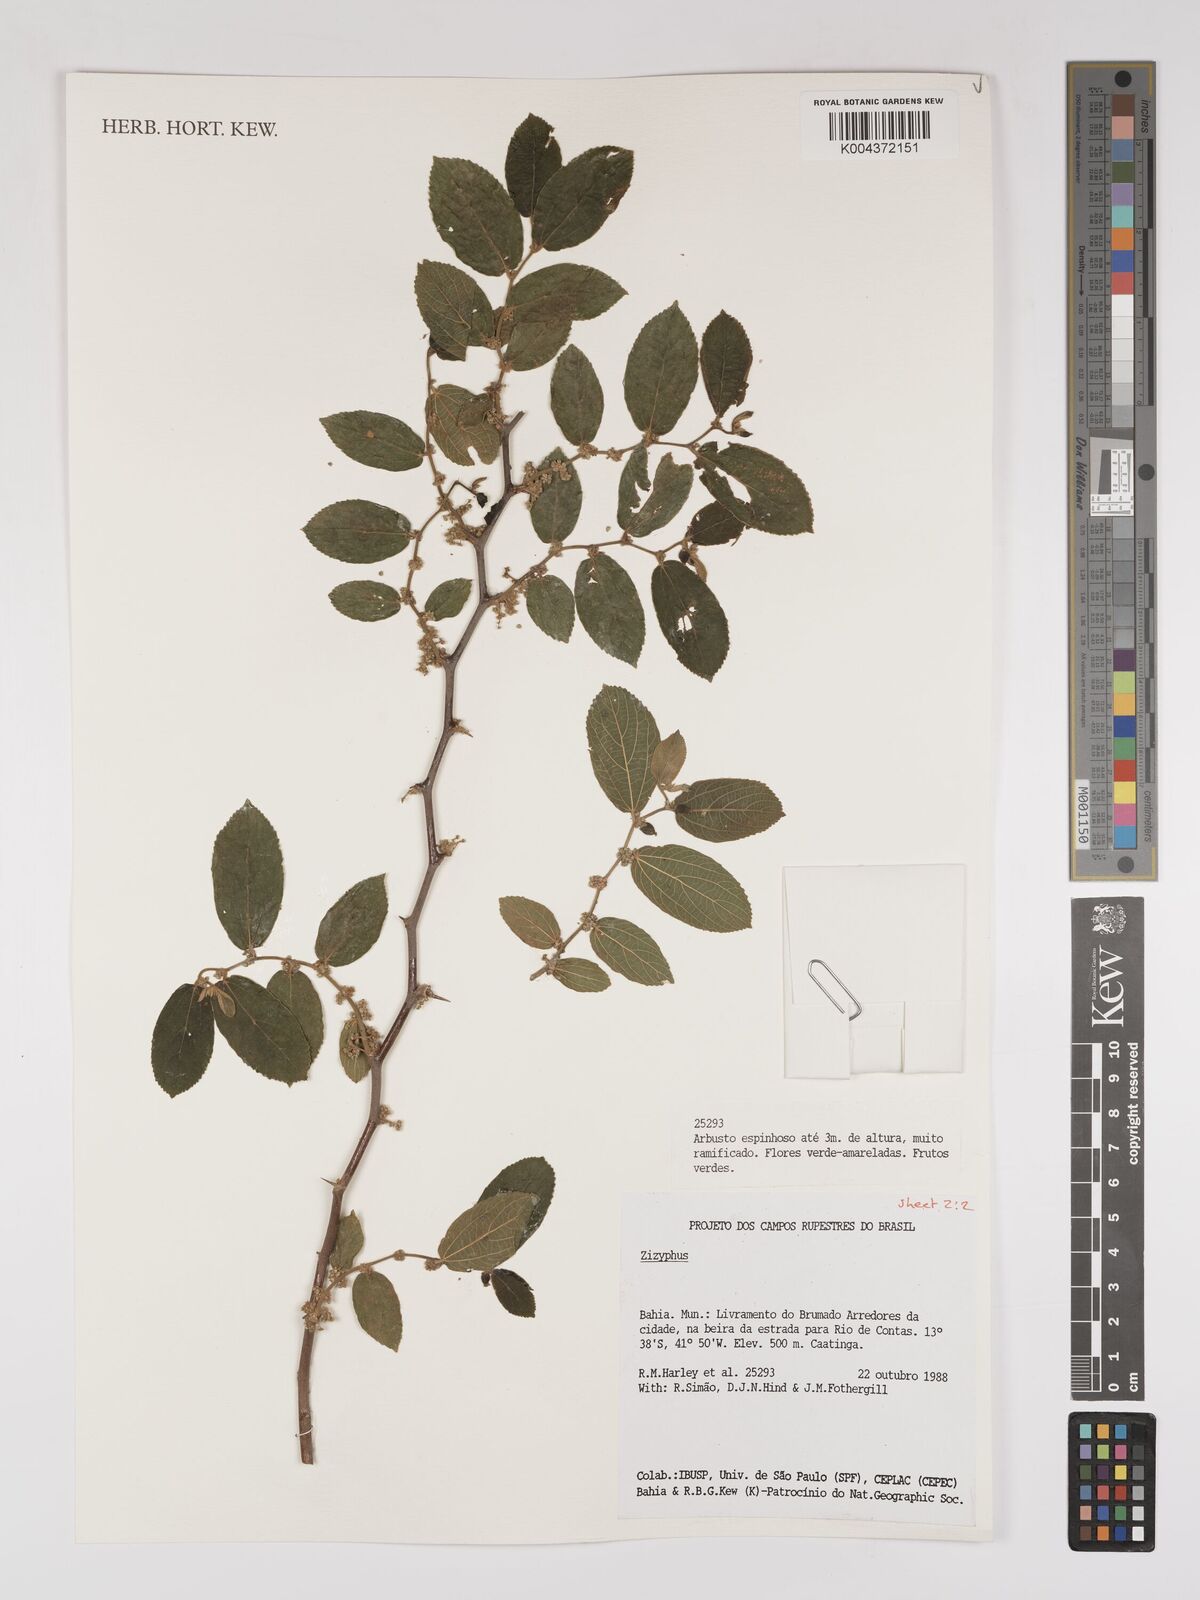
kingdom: Plantae
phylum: Tracheophyta
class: Magnoliopsida
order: Rosales
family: Rhamnaceae
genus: Ziziphus
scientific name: Ziziphus
